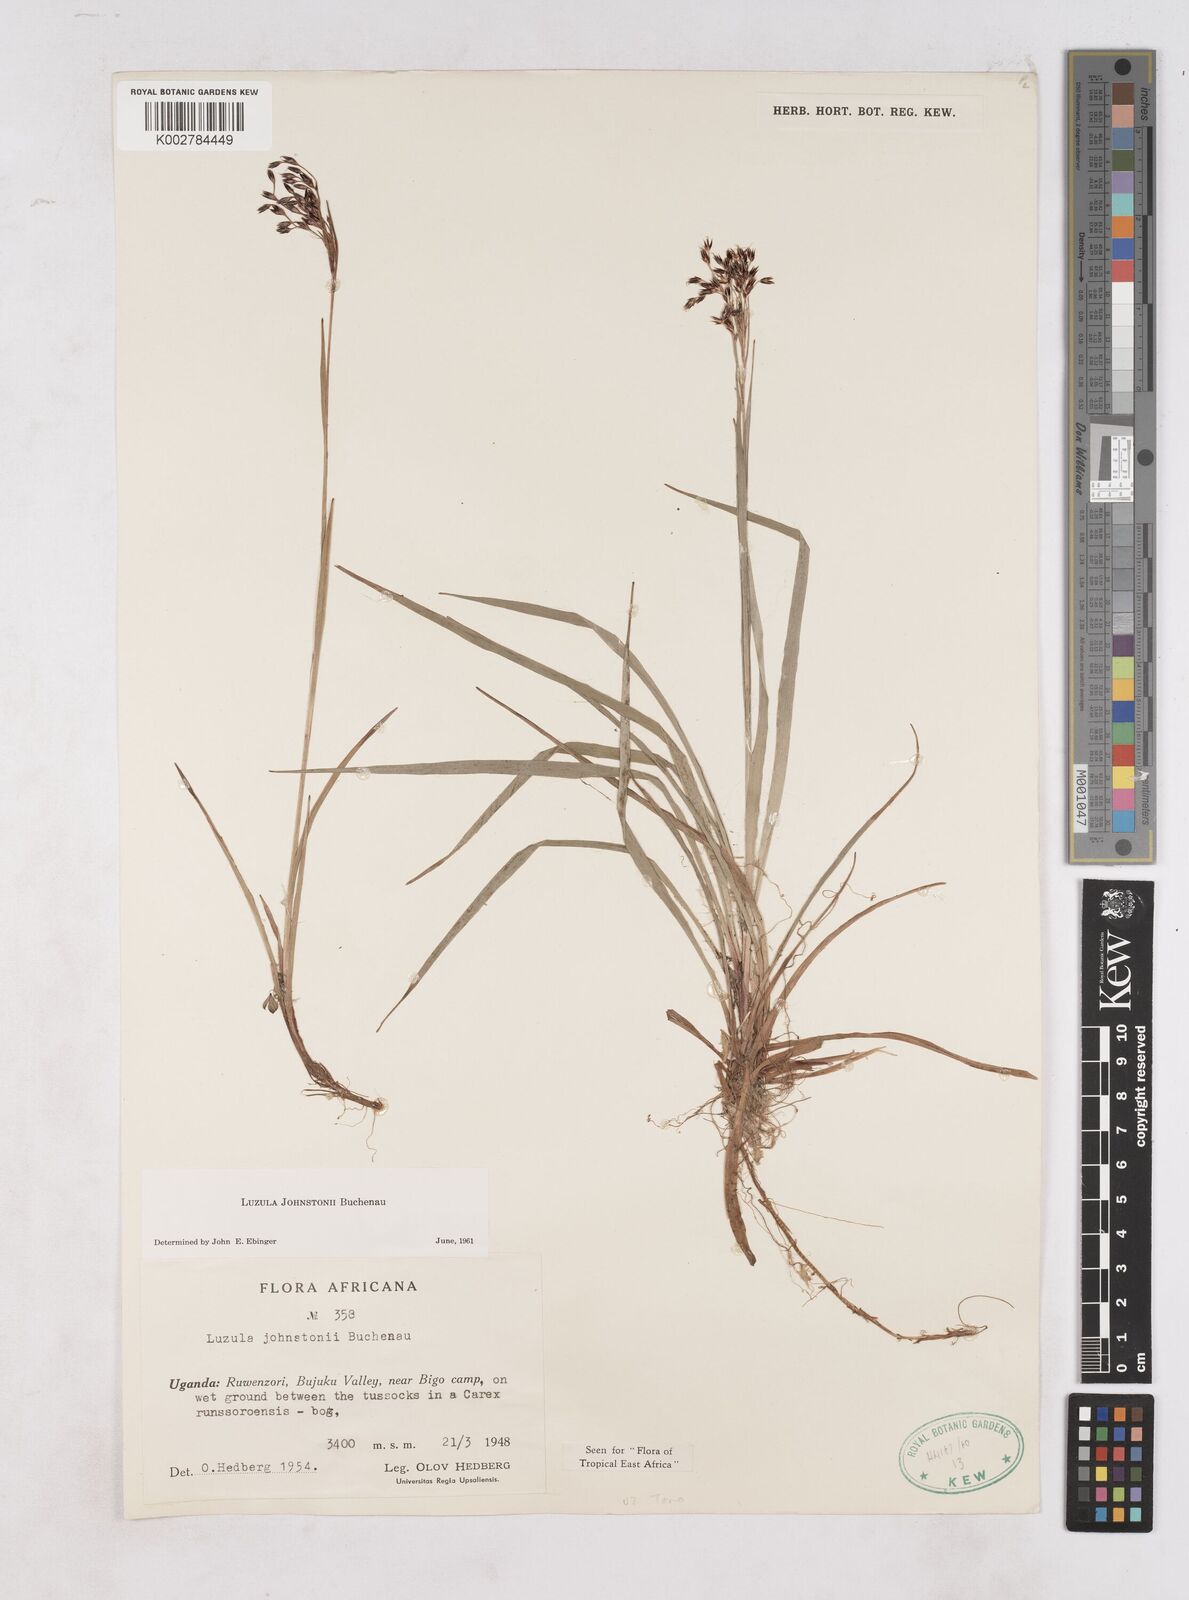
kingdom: Plantae
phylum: Tracheophyta
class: Liliopsida
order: Poales
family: Juncaceae
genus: Luzula
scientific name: Luzula johnstonii
